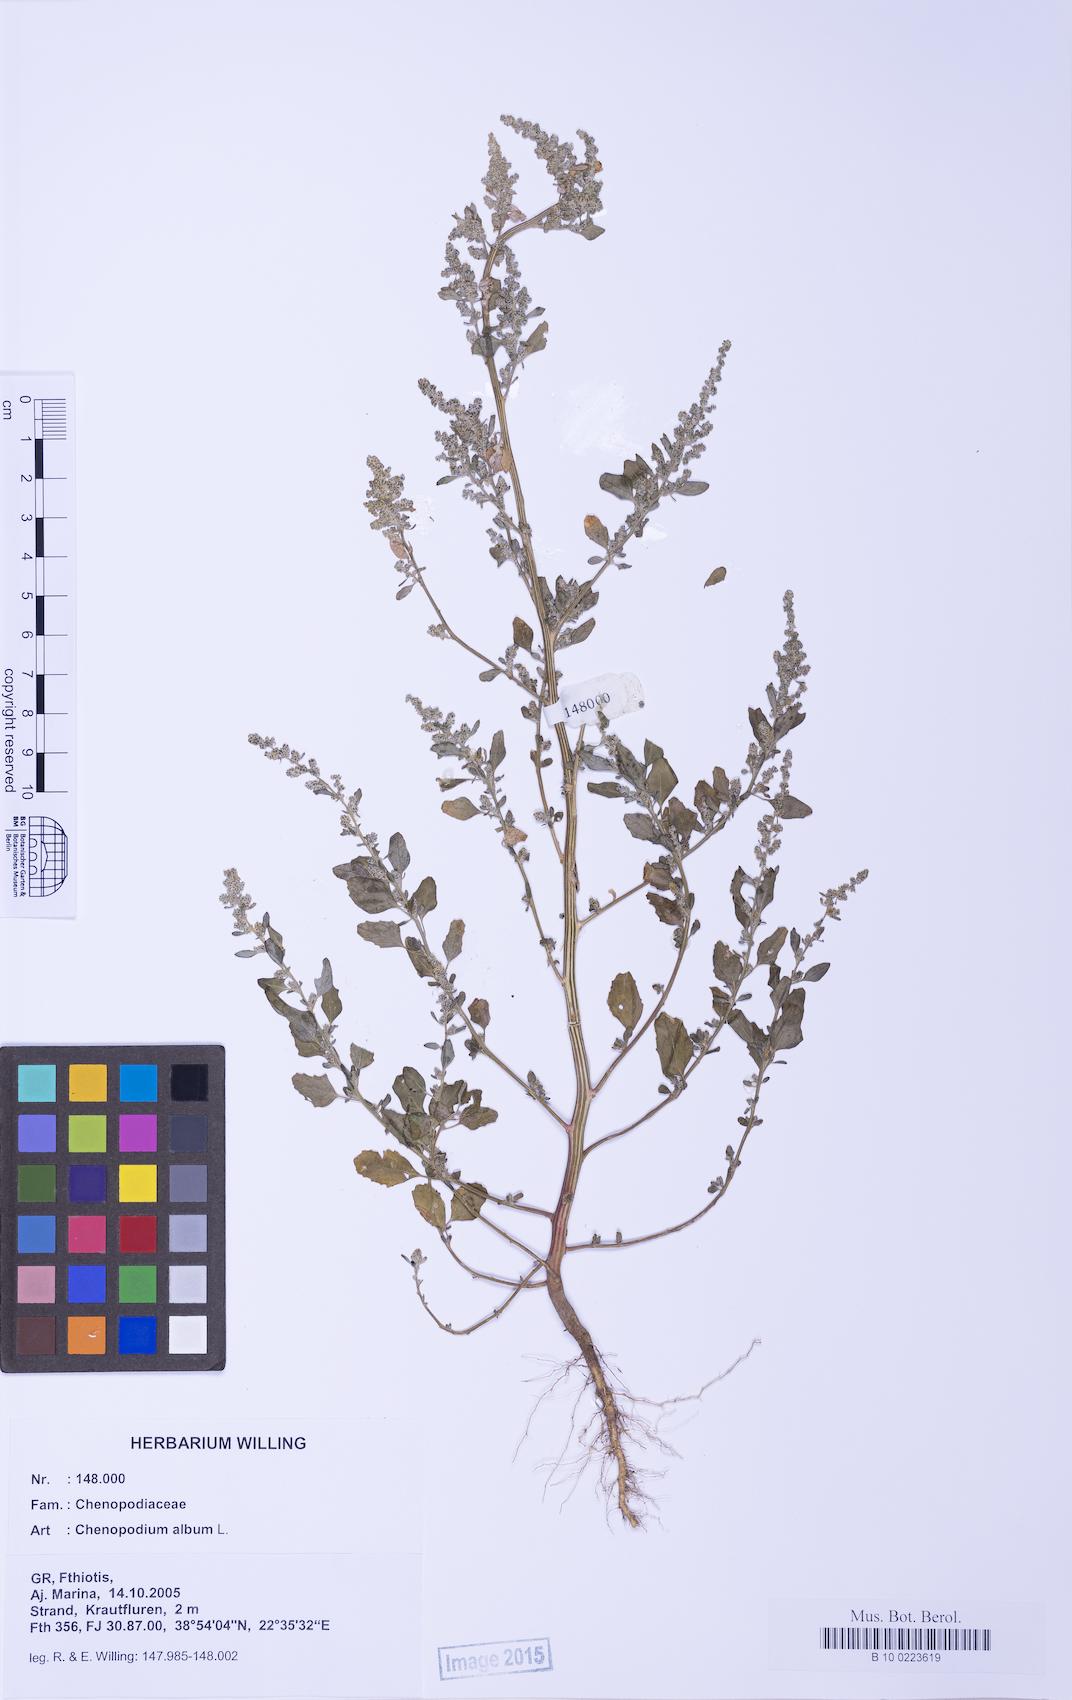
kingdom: Plantae
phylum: Tracheophyta
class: Magnoliopsida
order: Caryophyllales
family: Amaranthaceae
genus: Chenopodium
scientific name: Chenopodium album
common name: Fat-hen
